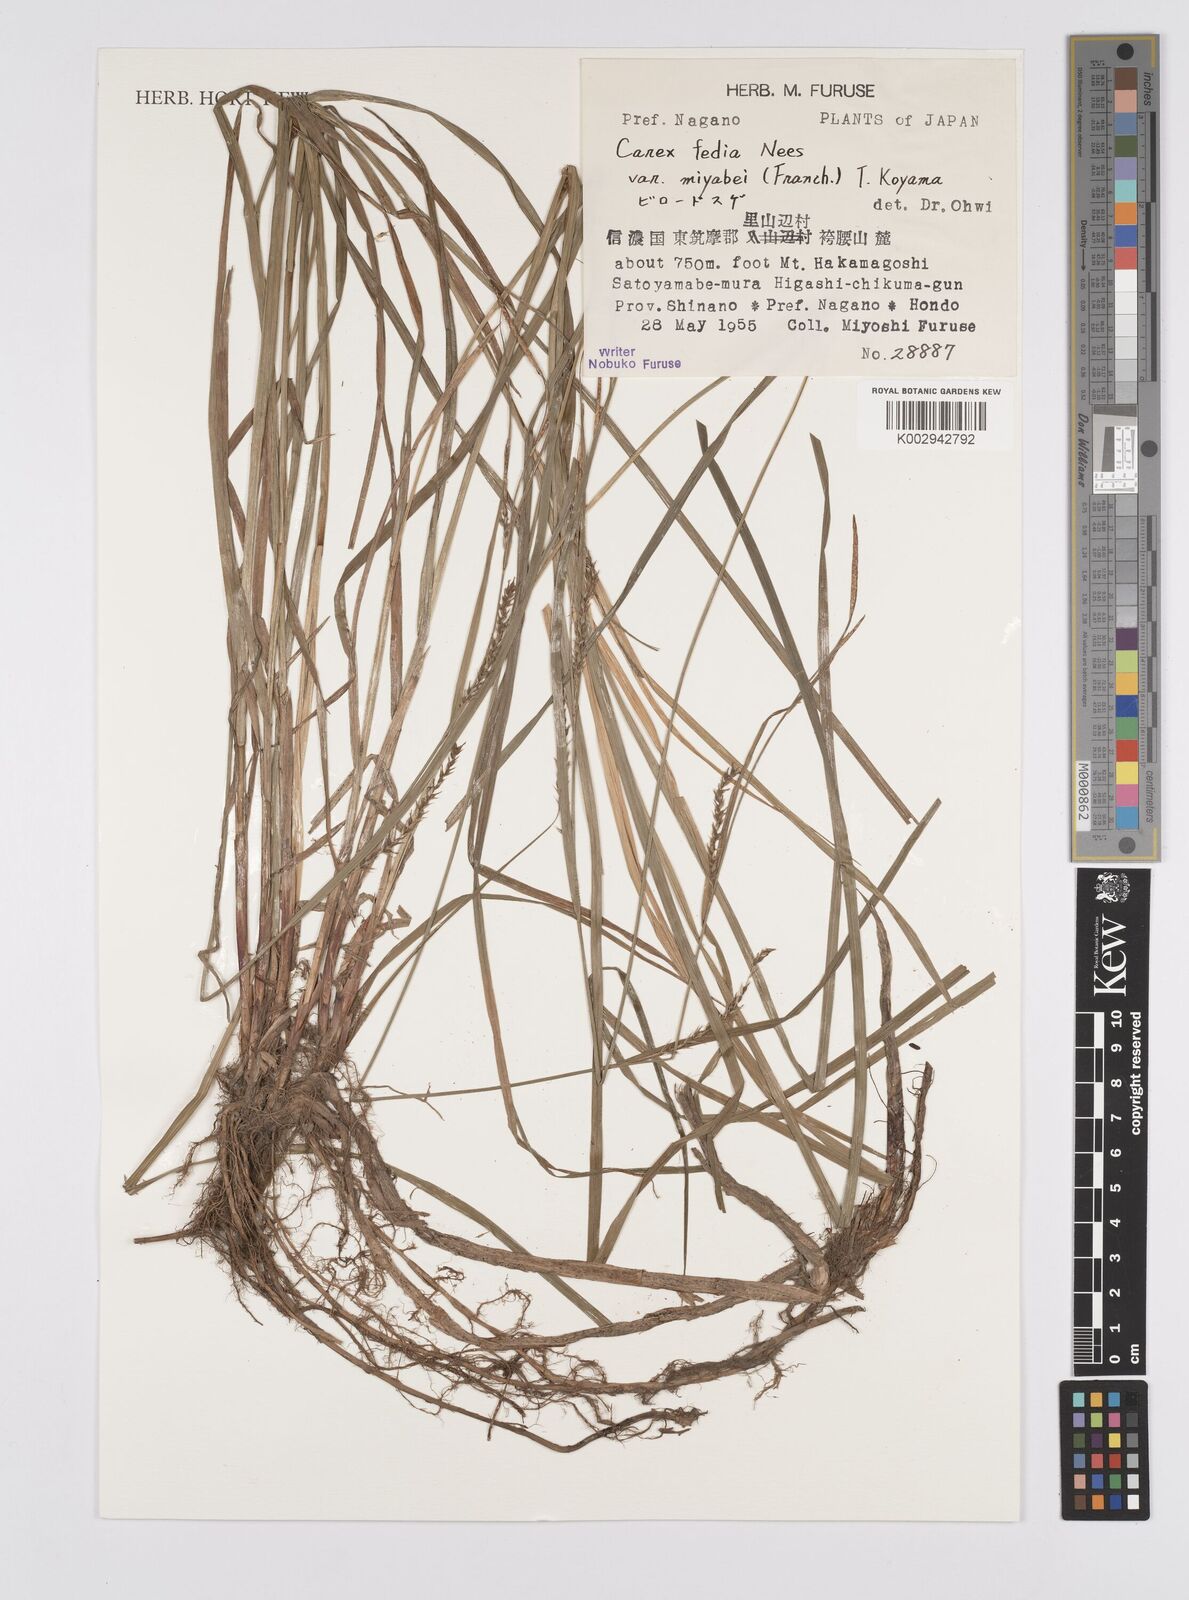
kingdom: Plantae
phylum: Tracheophyta
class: Liliopsida
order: Poales
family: Cyperaceae
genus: Carex
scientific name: Carex fedia
